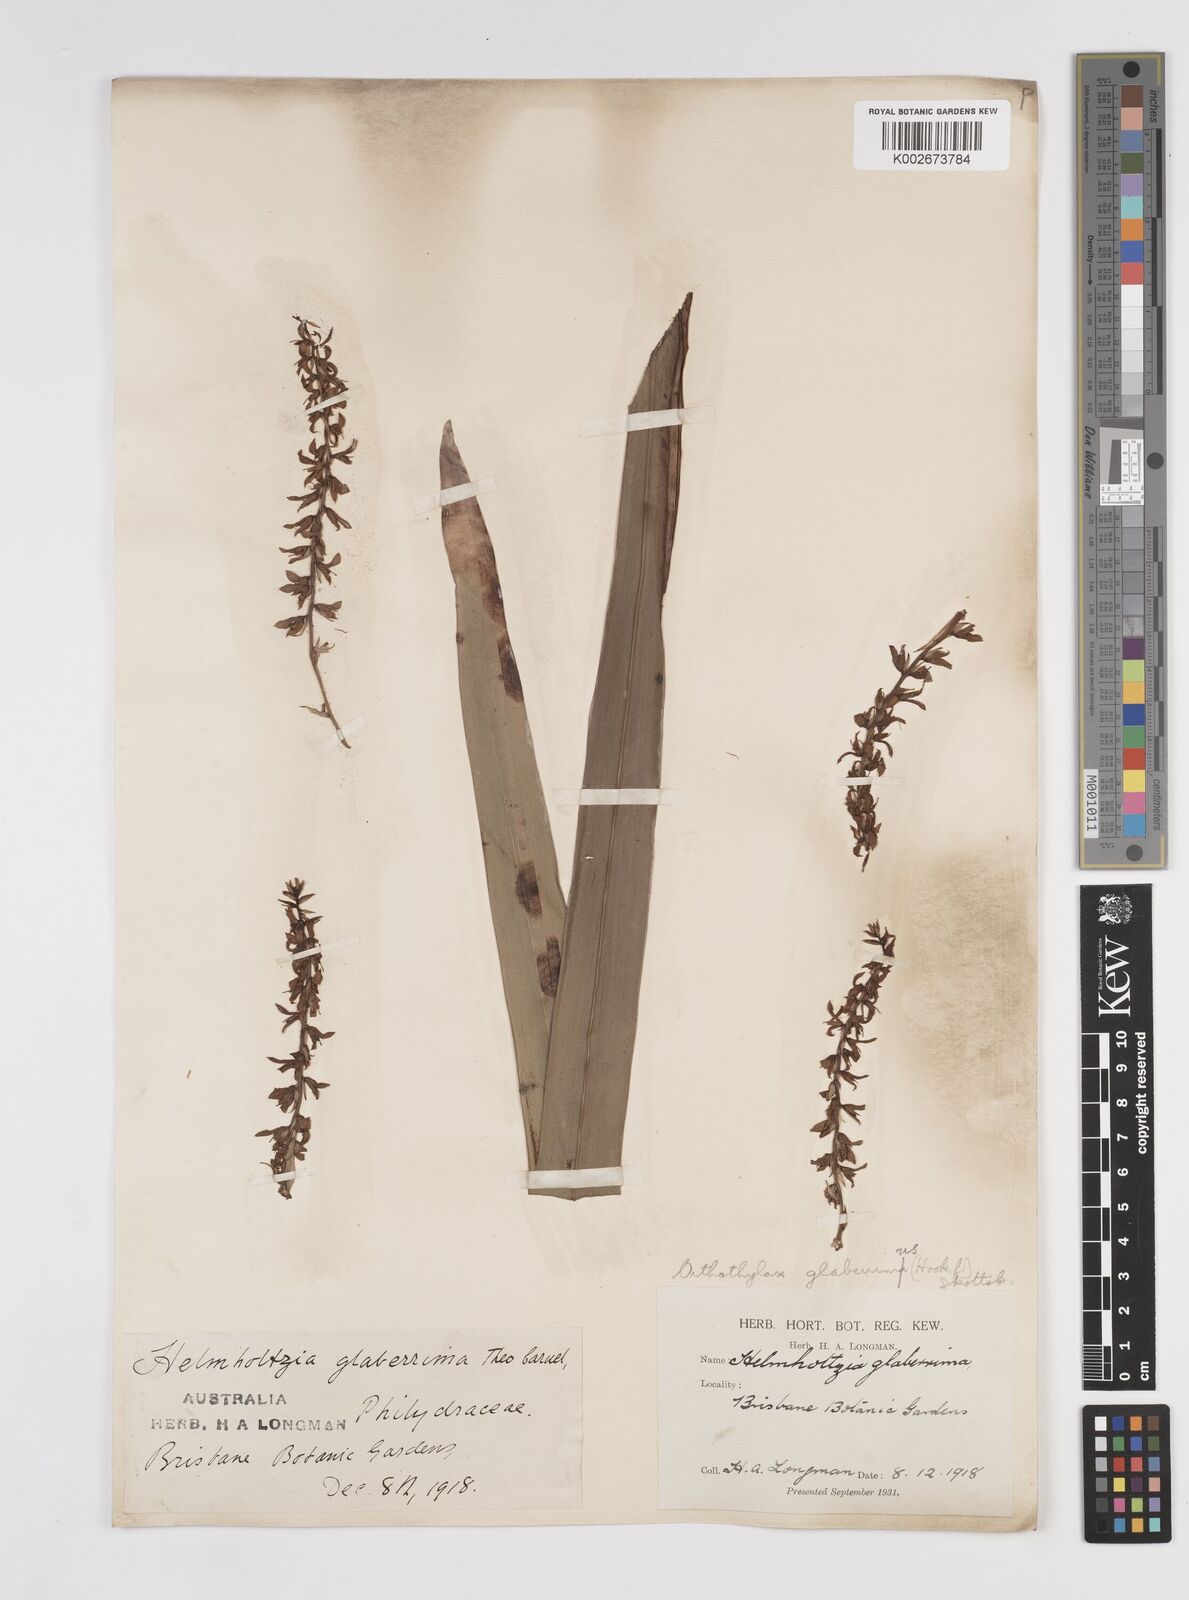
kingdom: Plantae
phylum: Tracheophyta
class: Liliopsida
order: Commelinales
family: Philydraceae
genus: Helmholtzia
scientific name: Helmholtzia glaberrima
